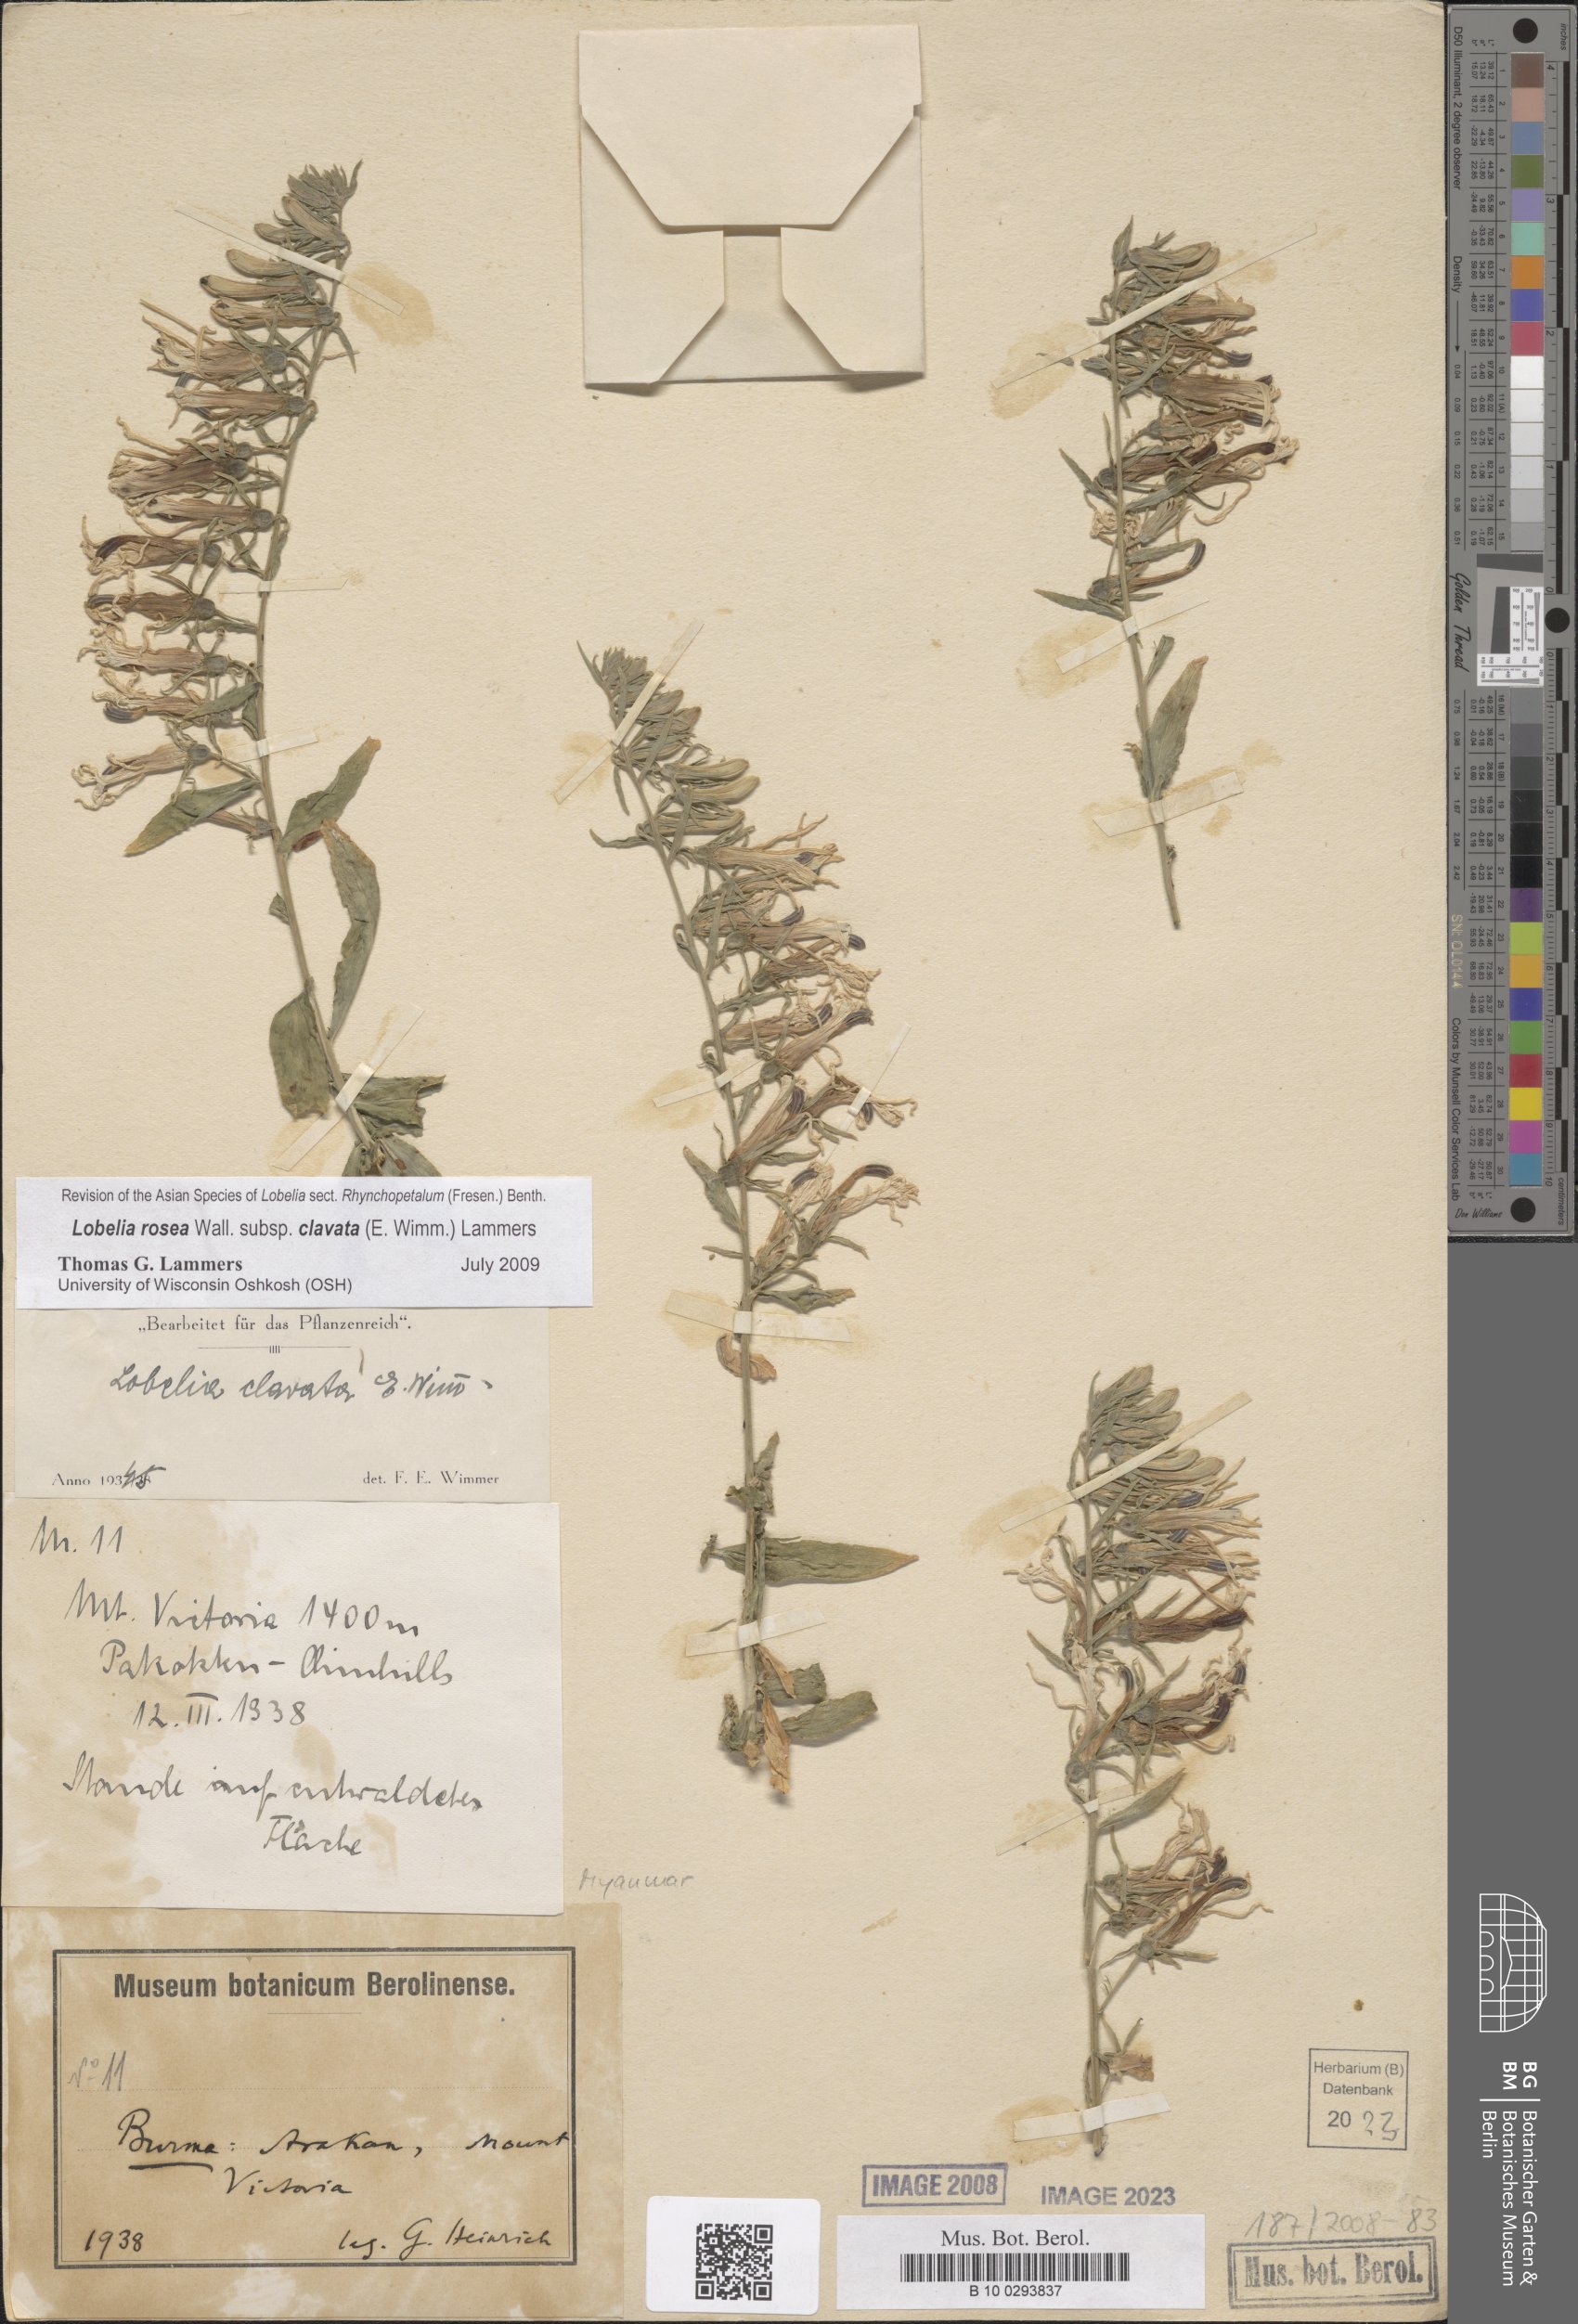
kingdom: Plantae
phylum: Tracheophyta
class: Magnoliopsida
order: Asterales
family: Campanulaceae
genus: Lobelia
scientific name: Lobelia clavata
